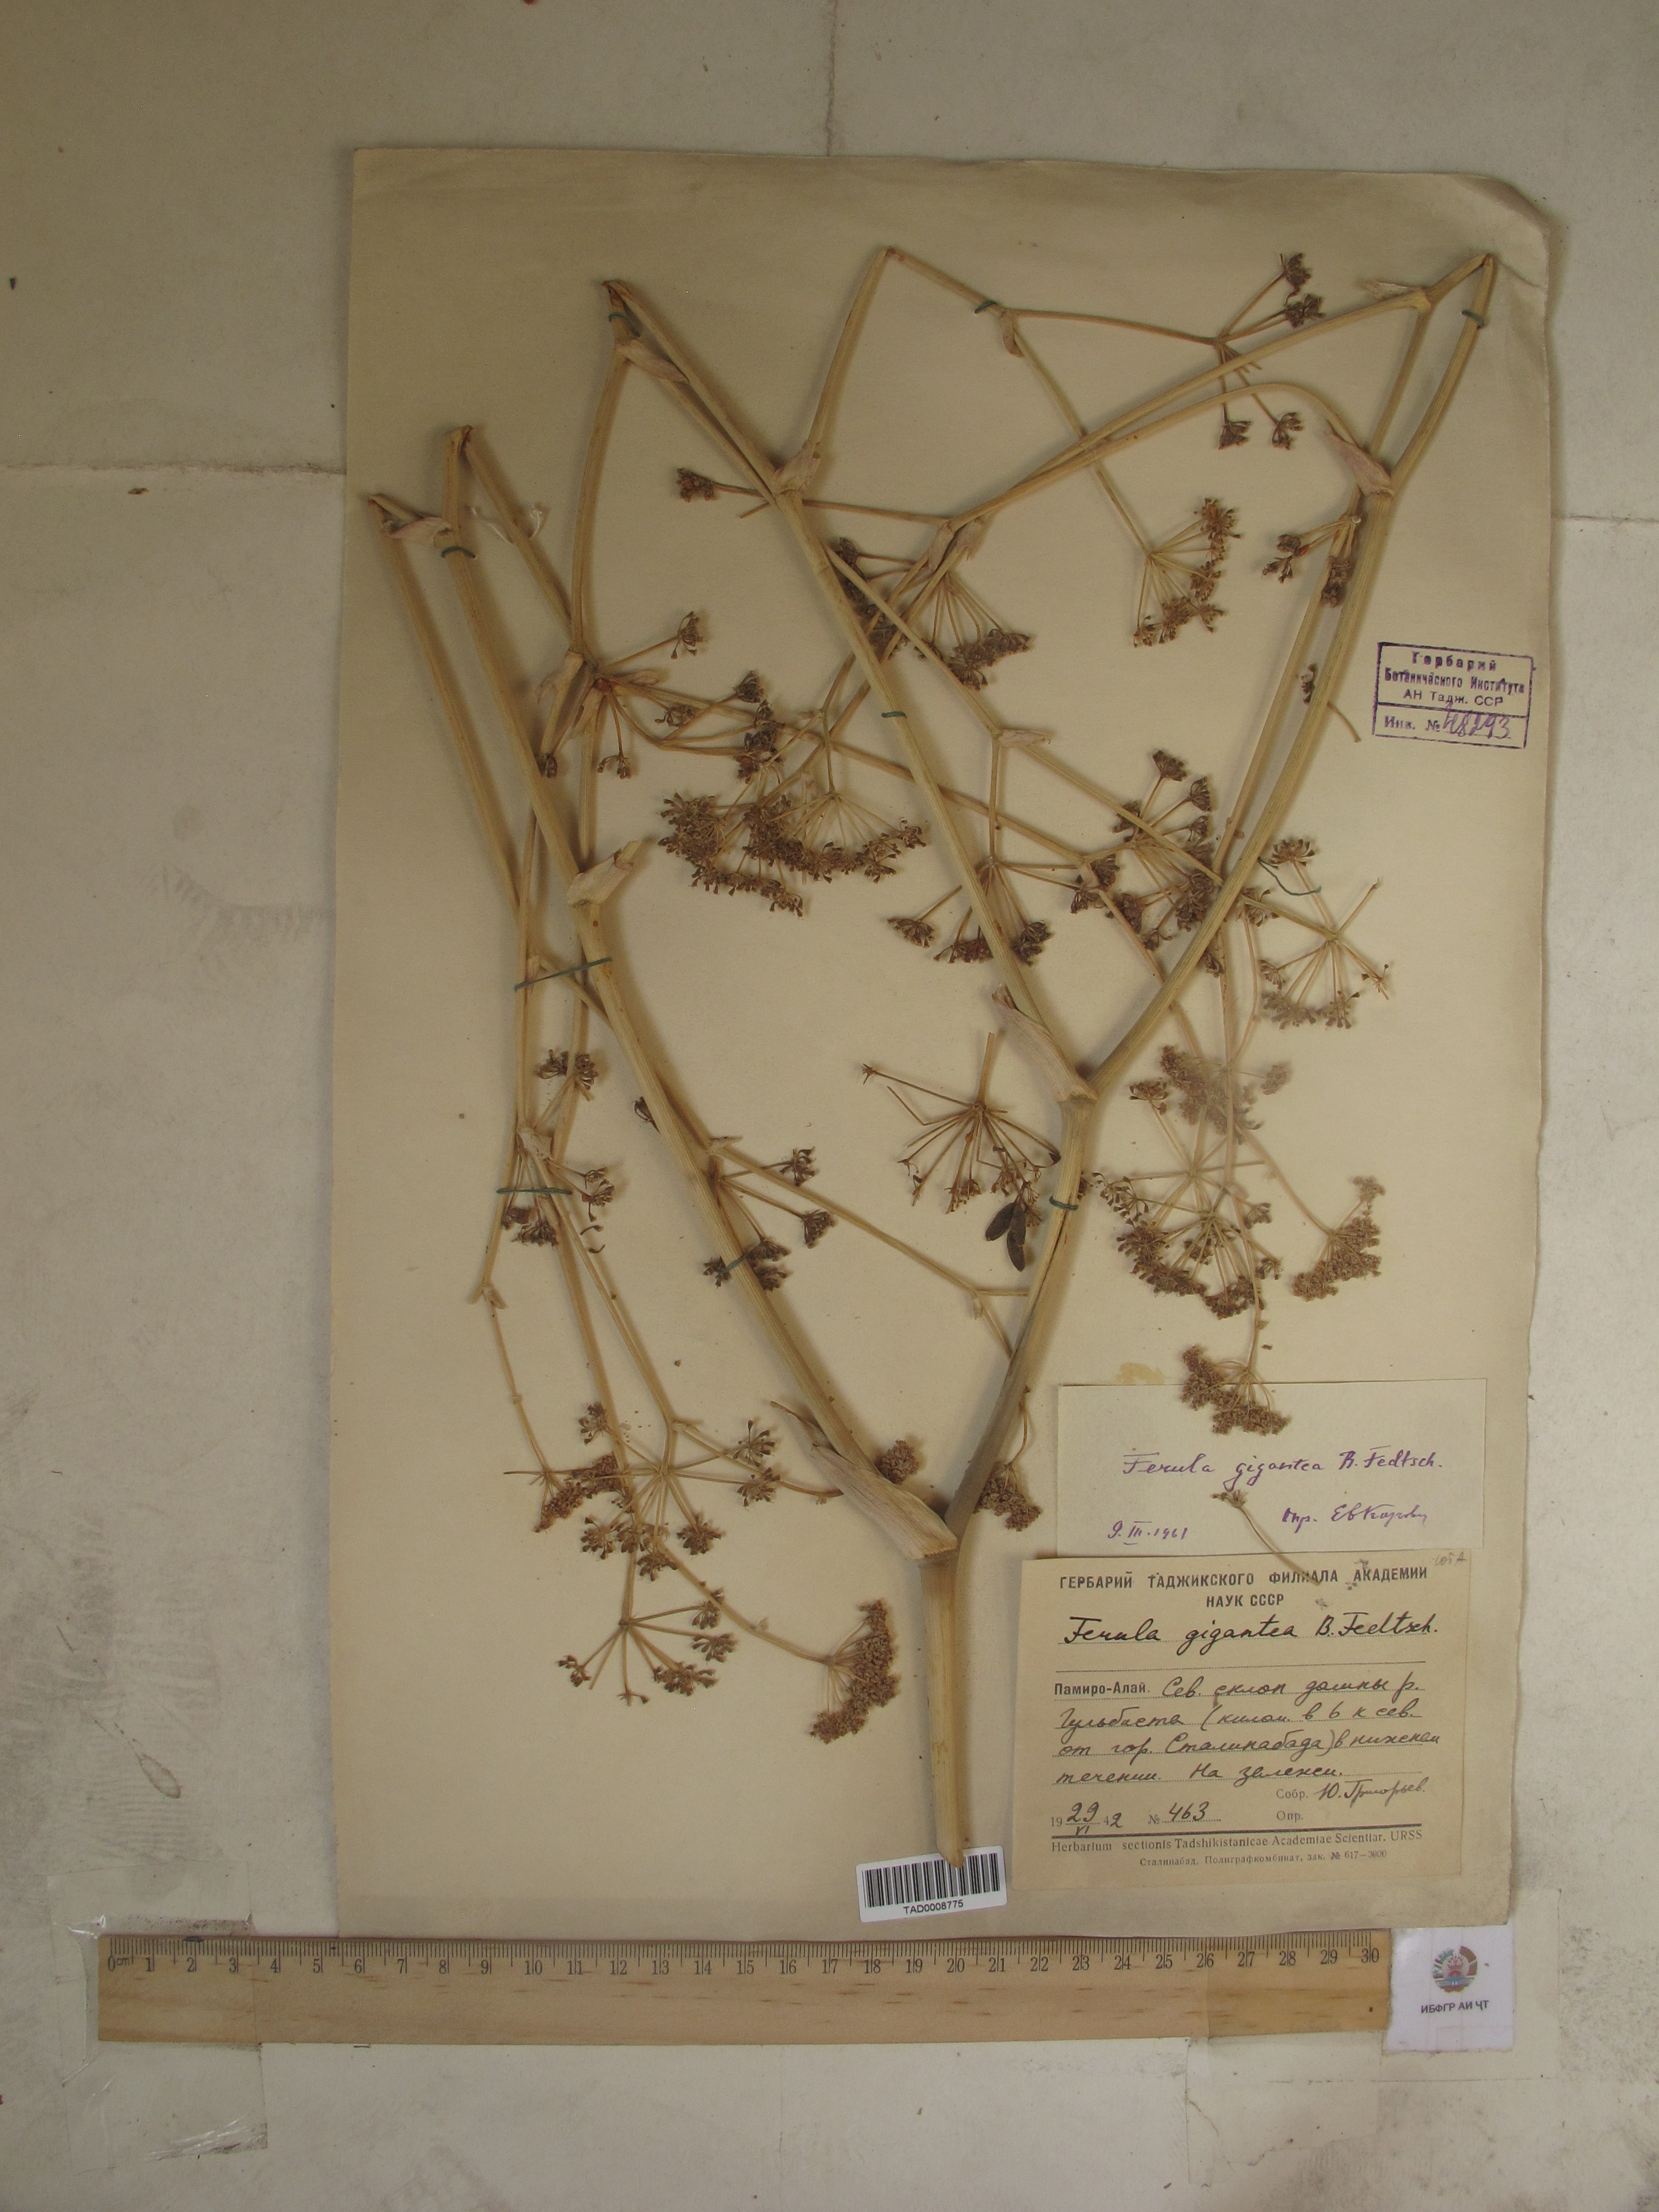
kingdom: Plantae
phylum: Tracheophyta
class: Magnoliopsida
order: Apiales
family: Apiaceae
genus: Ferula
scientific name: Ferula gigantea
